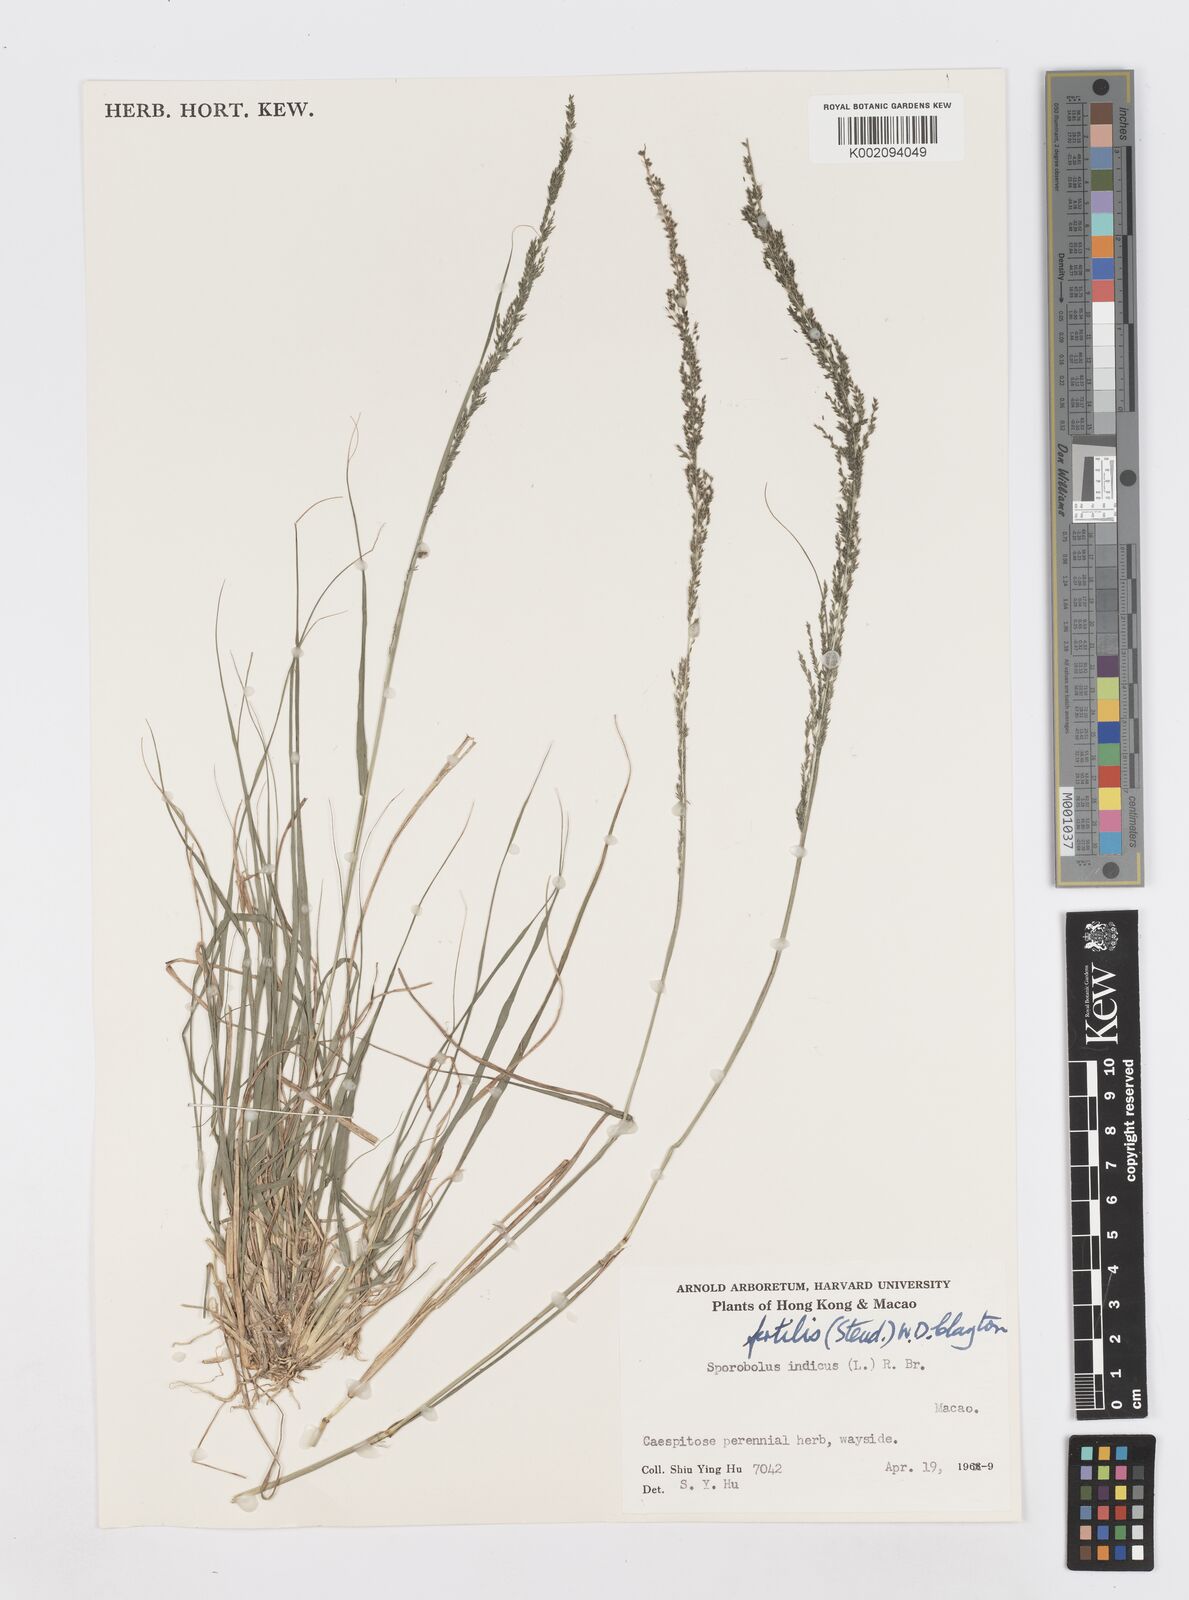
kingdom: Plantae
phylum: Tracheophyta
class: Liliopsida
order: Poales
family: Poaceae
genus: Sporobolus
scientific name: Sporobolus fertilis
